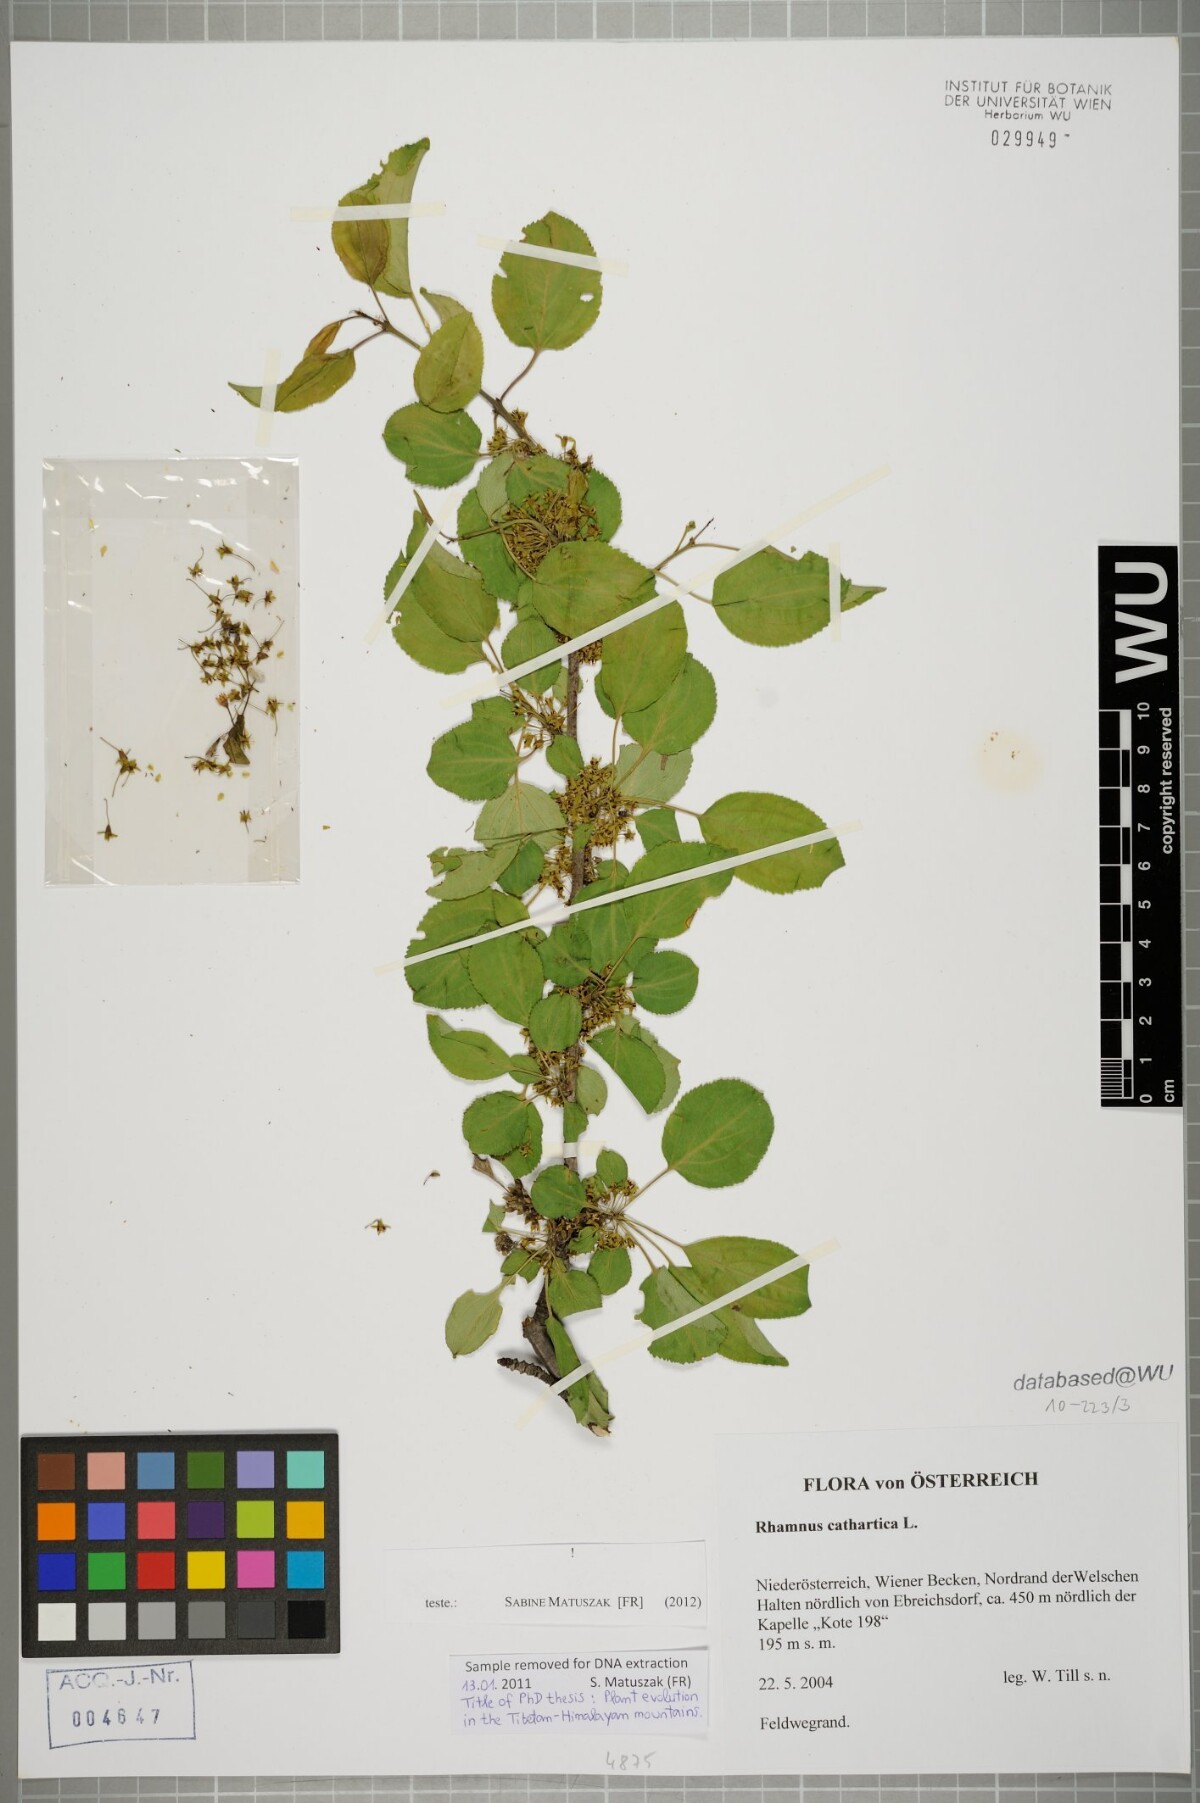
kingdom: Plantae
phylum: Tracheophyta
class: Magnoliopsida
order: Rosales
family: Rhamnaceae
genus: Rhamnus
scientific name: Rhamnus cathartica
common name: Common buckthorn
